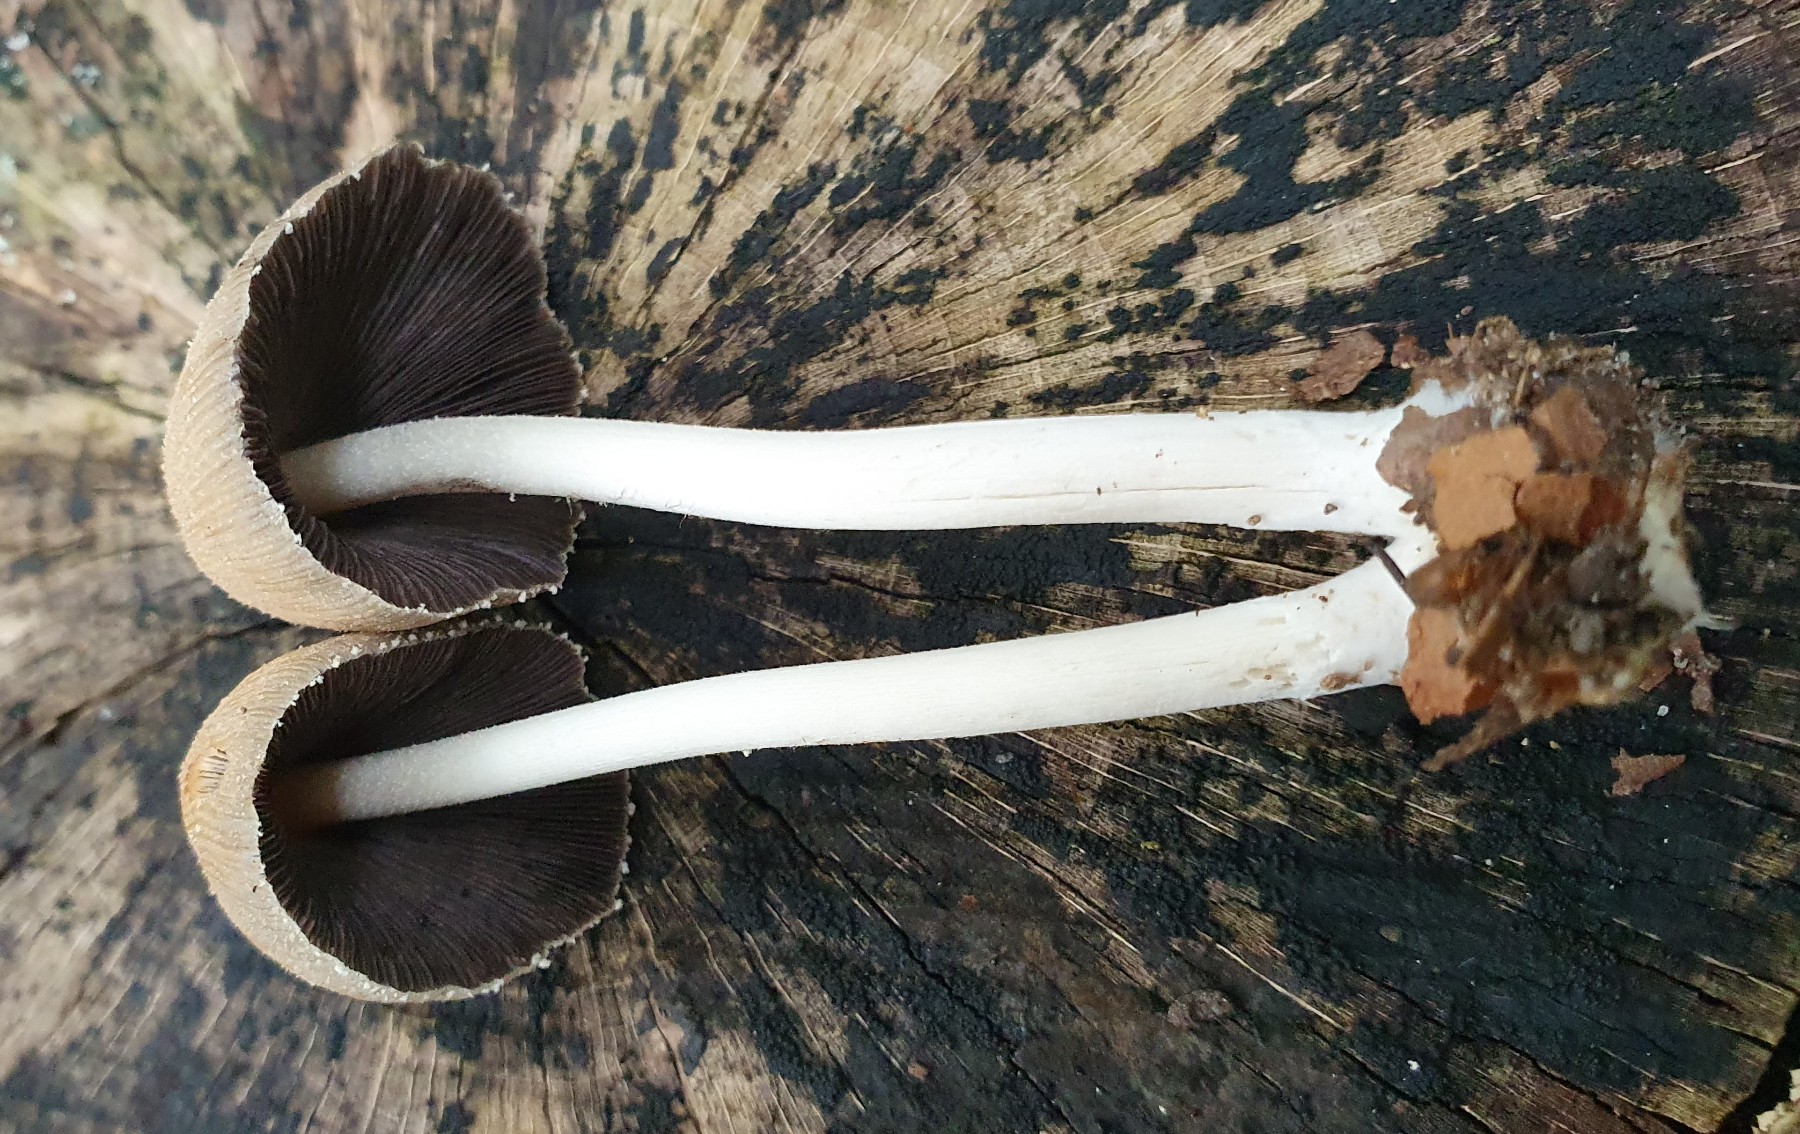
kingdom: Fungi
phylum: Basidiomycota
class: Agaricomycetes
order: Agaricales
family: Psathyrellaceae
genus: Coprinellus
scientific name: Coprinellus micaceus
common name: glimmer-blækhat
